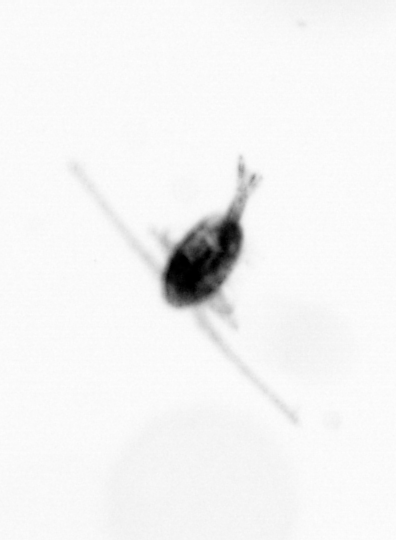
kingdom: Animalia
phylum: Arthropoda
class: Copepoda
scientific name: Copepoda
